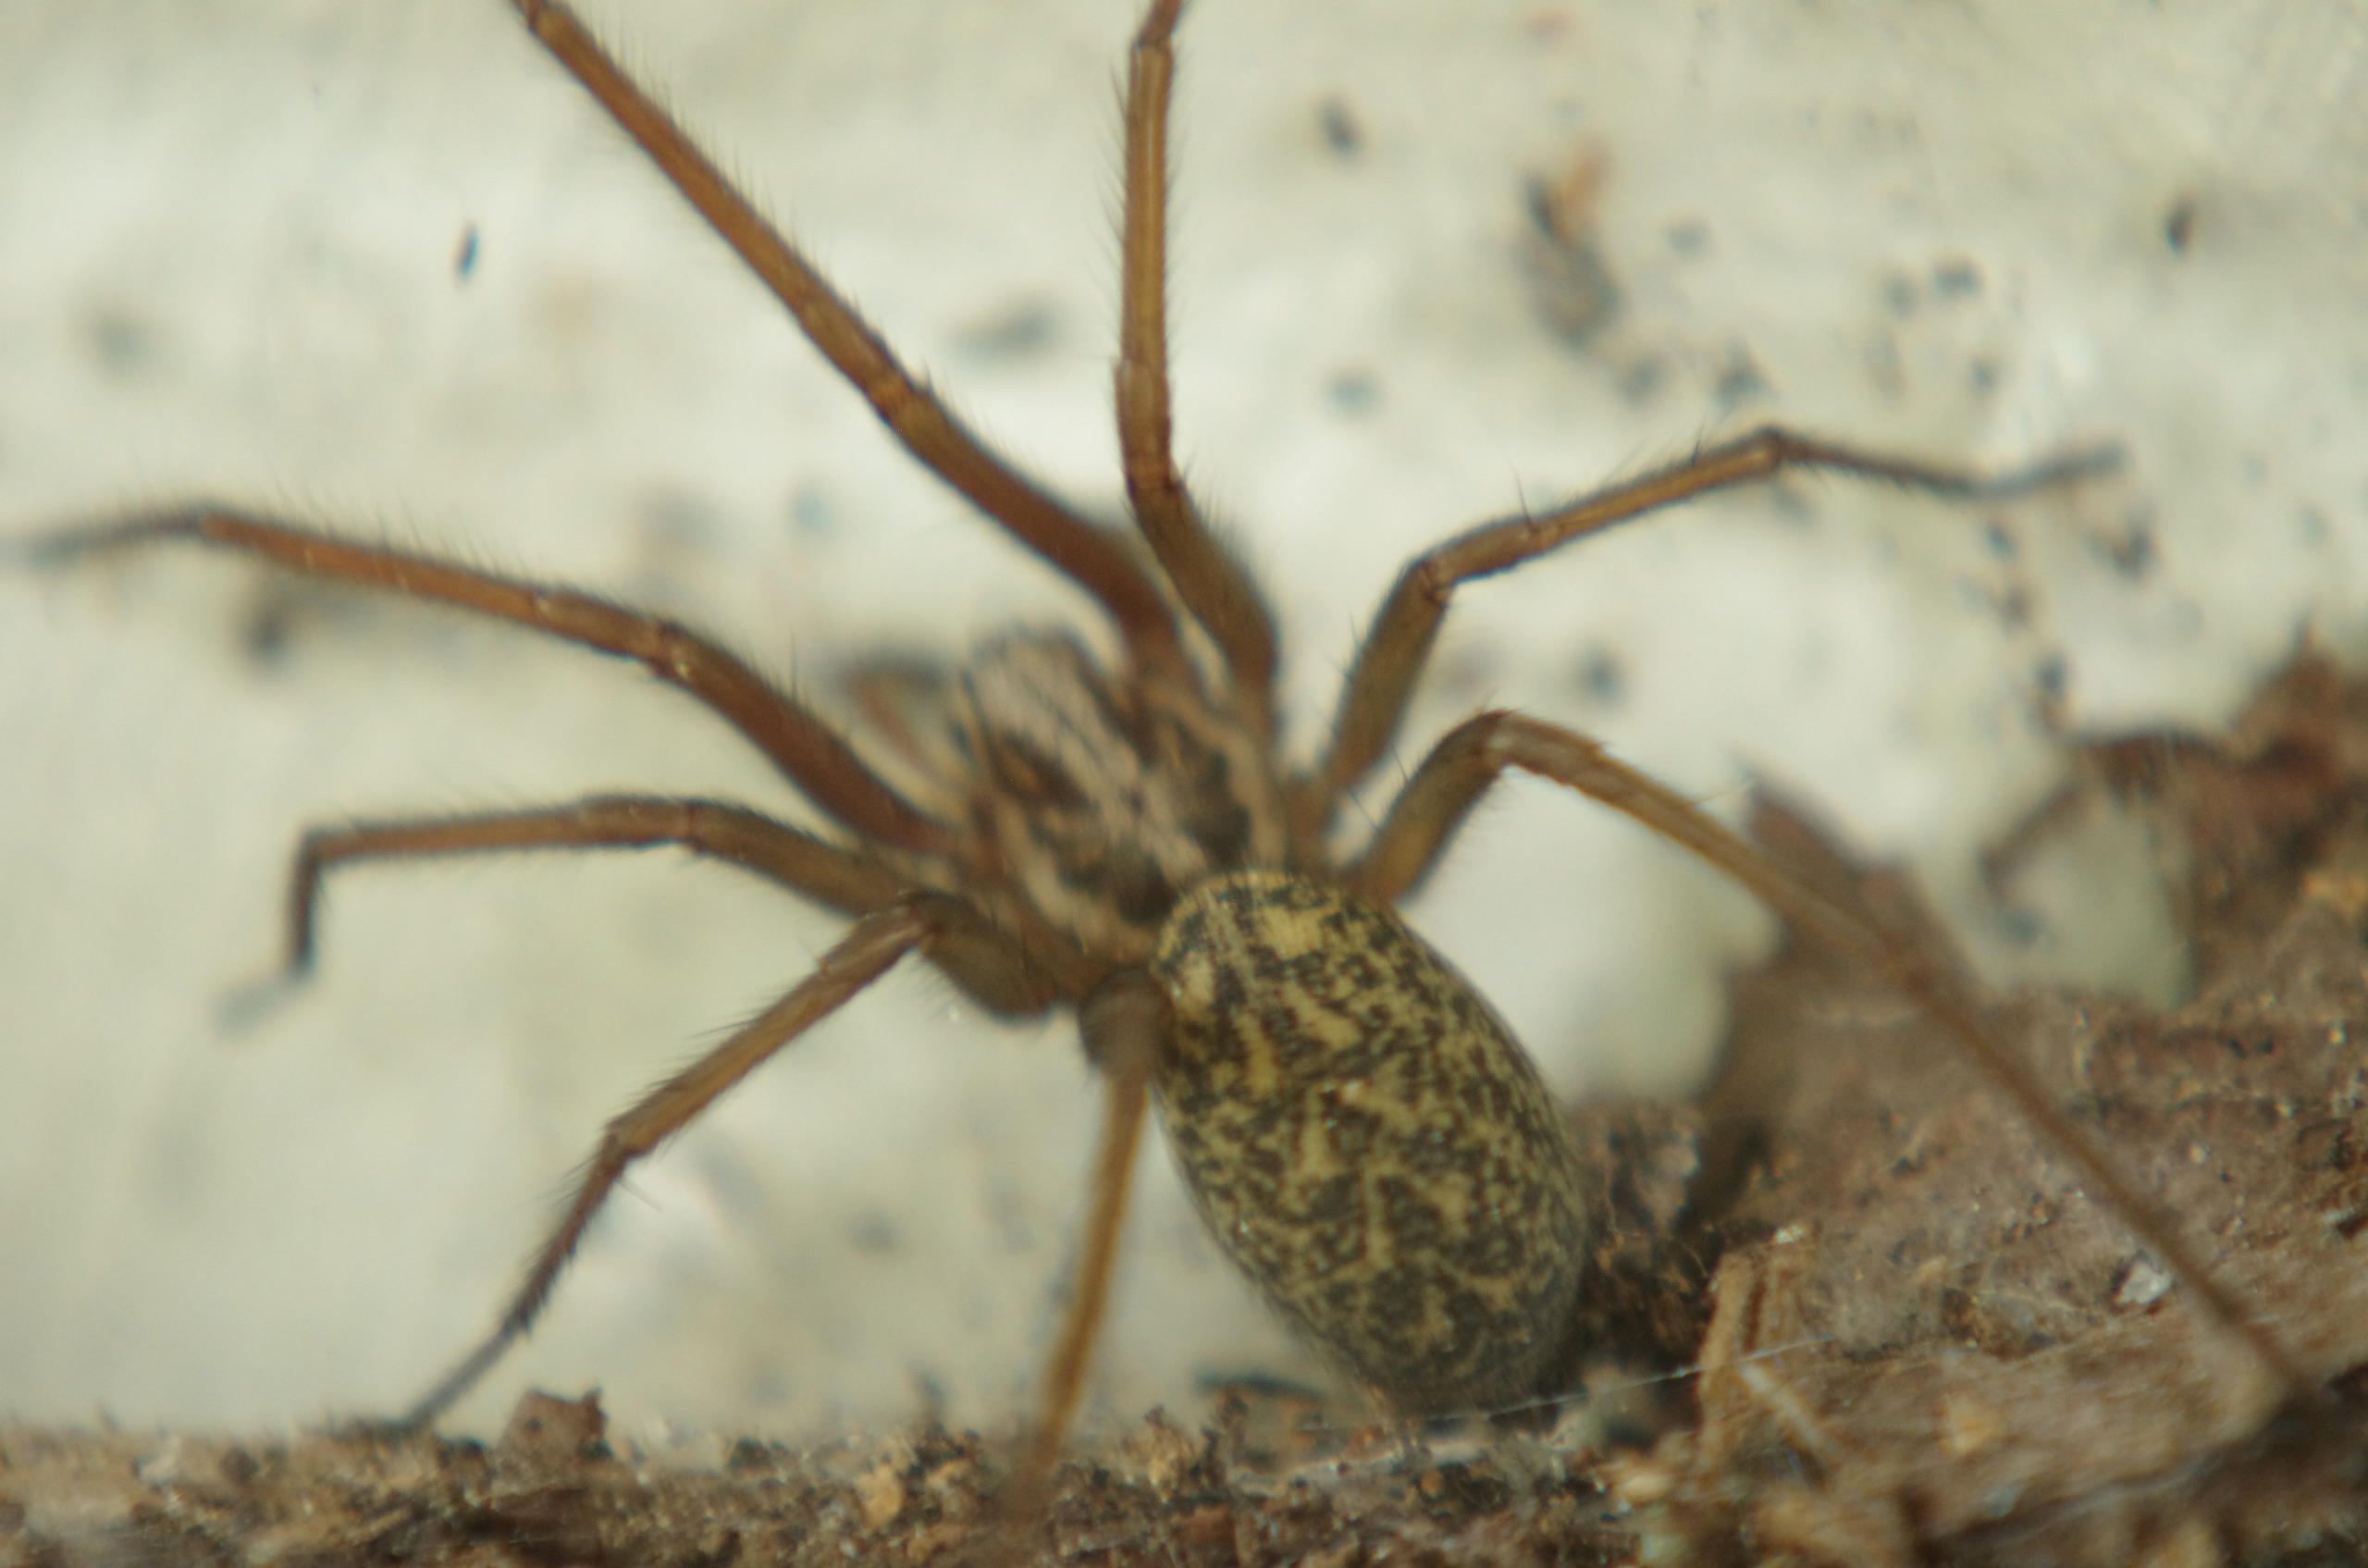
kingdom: Animalia
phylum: Arthropoda
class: Arachnida
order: Araneae
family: Agelenidae
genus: Eratigena
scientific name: Eratigena atrica
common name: Stor husedderkop
